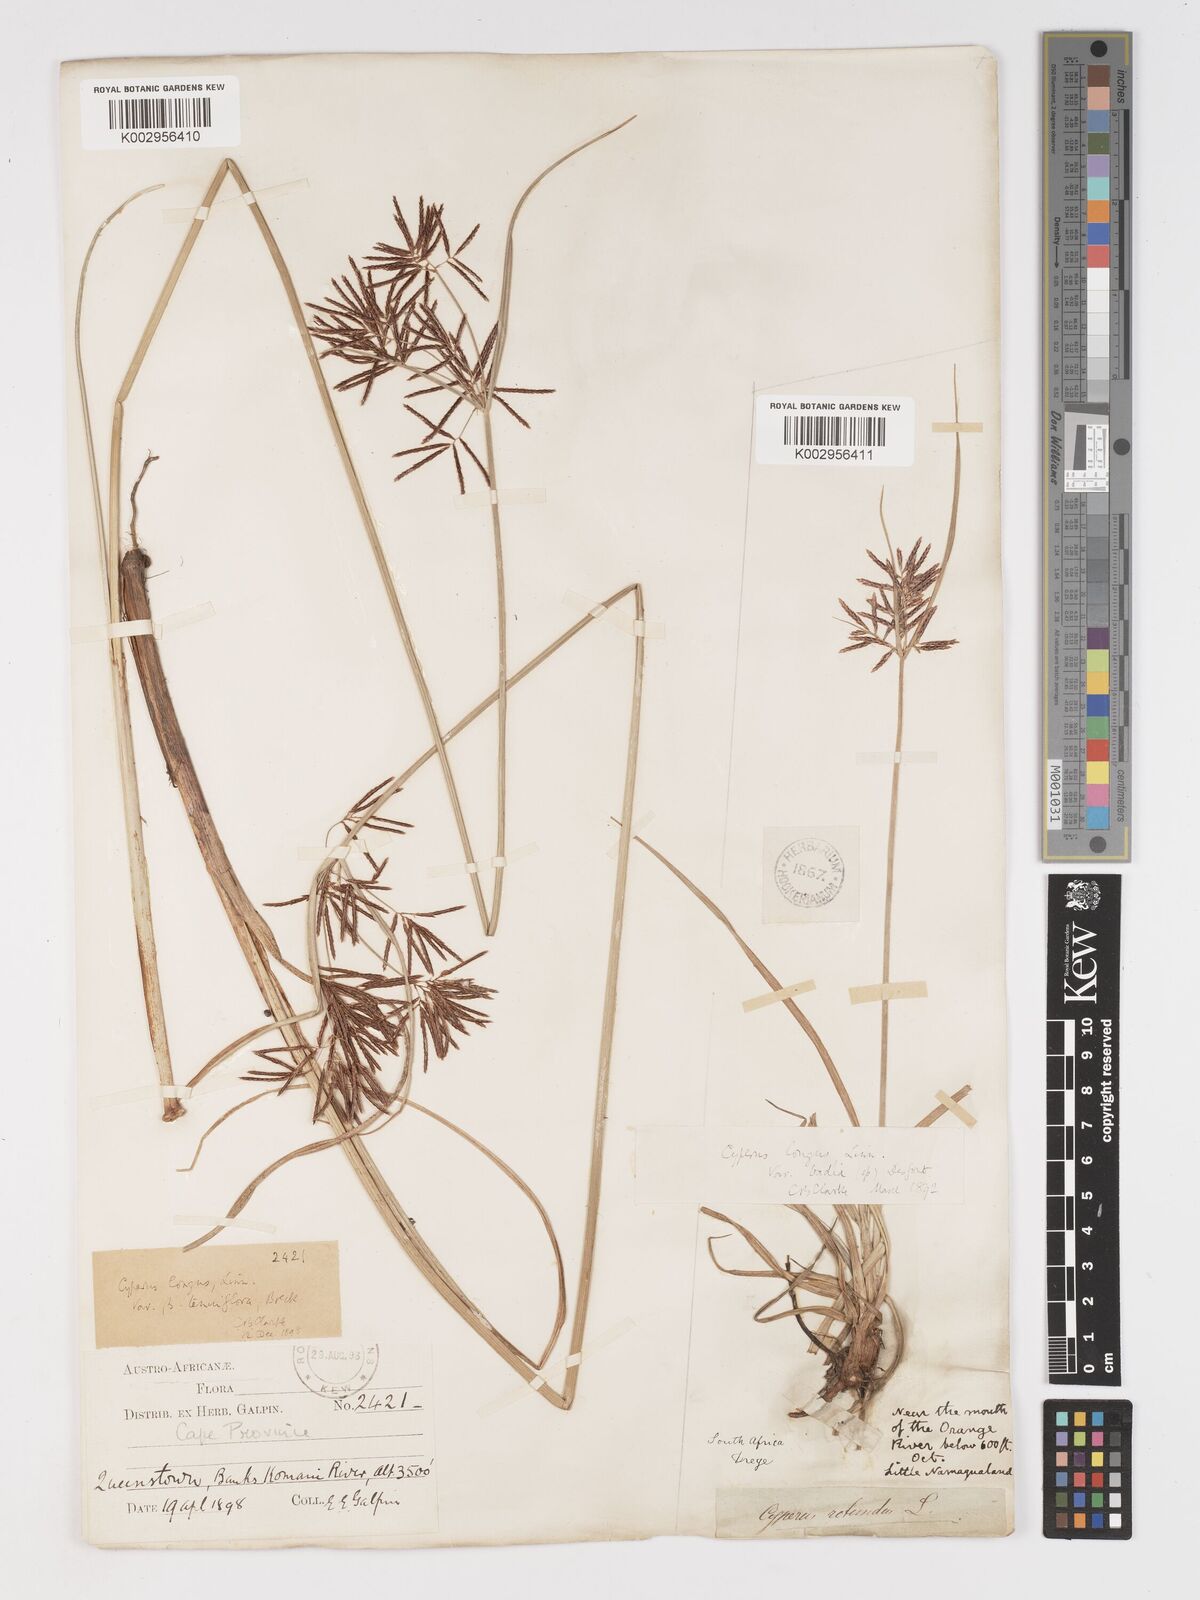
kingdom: Plantae
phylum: Tracheophyta
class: Liliopsida
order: Poales
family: Cyperaceae
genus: Cyperus
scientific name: Cyperus longus
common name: Galingale
